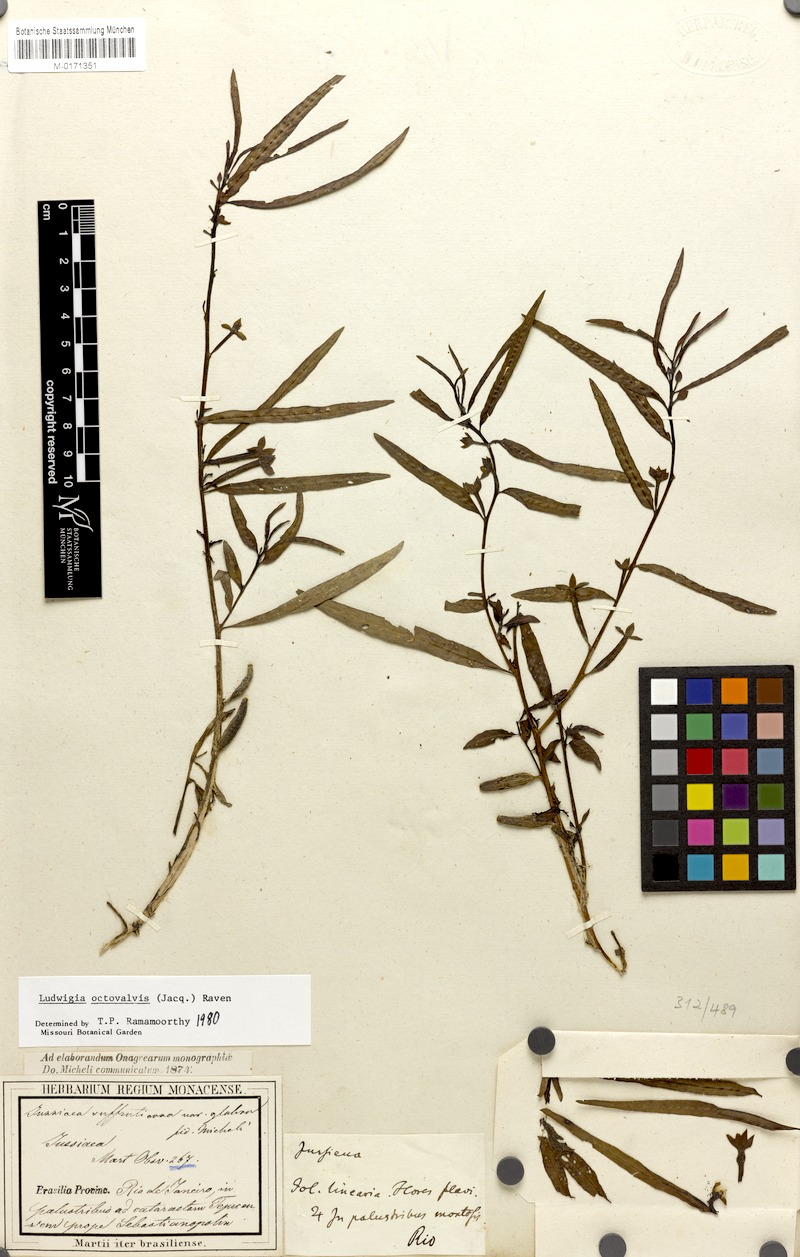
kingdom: Plantae
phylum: Tracheophyta
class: Magnoliopsida
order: Myrtales
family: Onagraceae
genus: Ludwigia
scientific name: Ludwigia octovalvis
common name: Water-primrose
